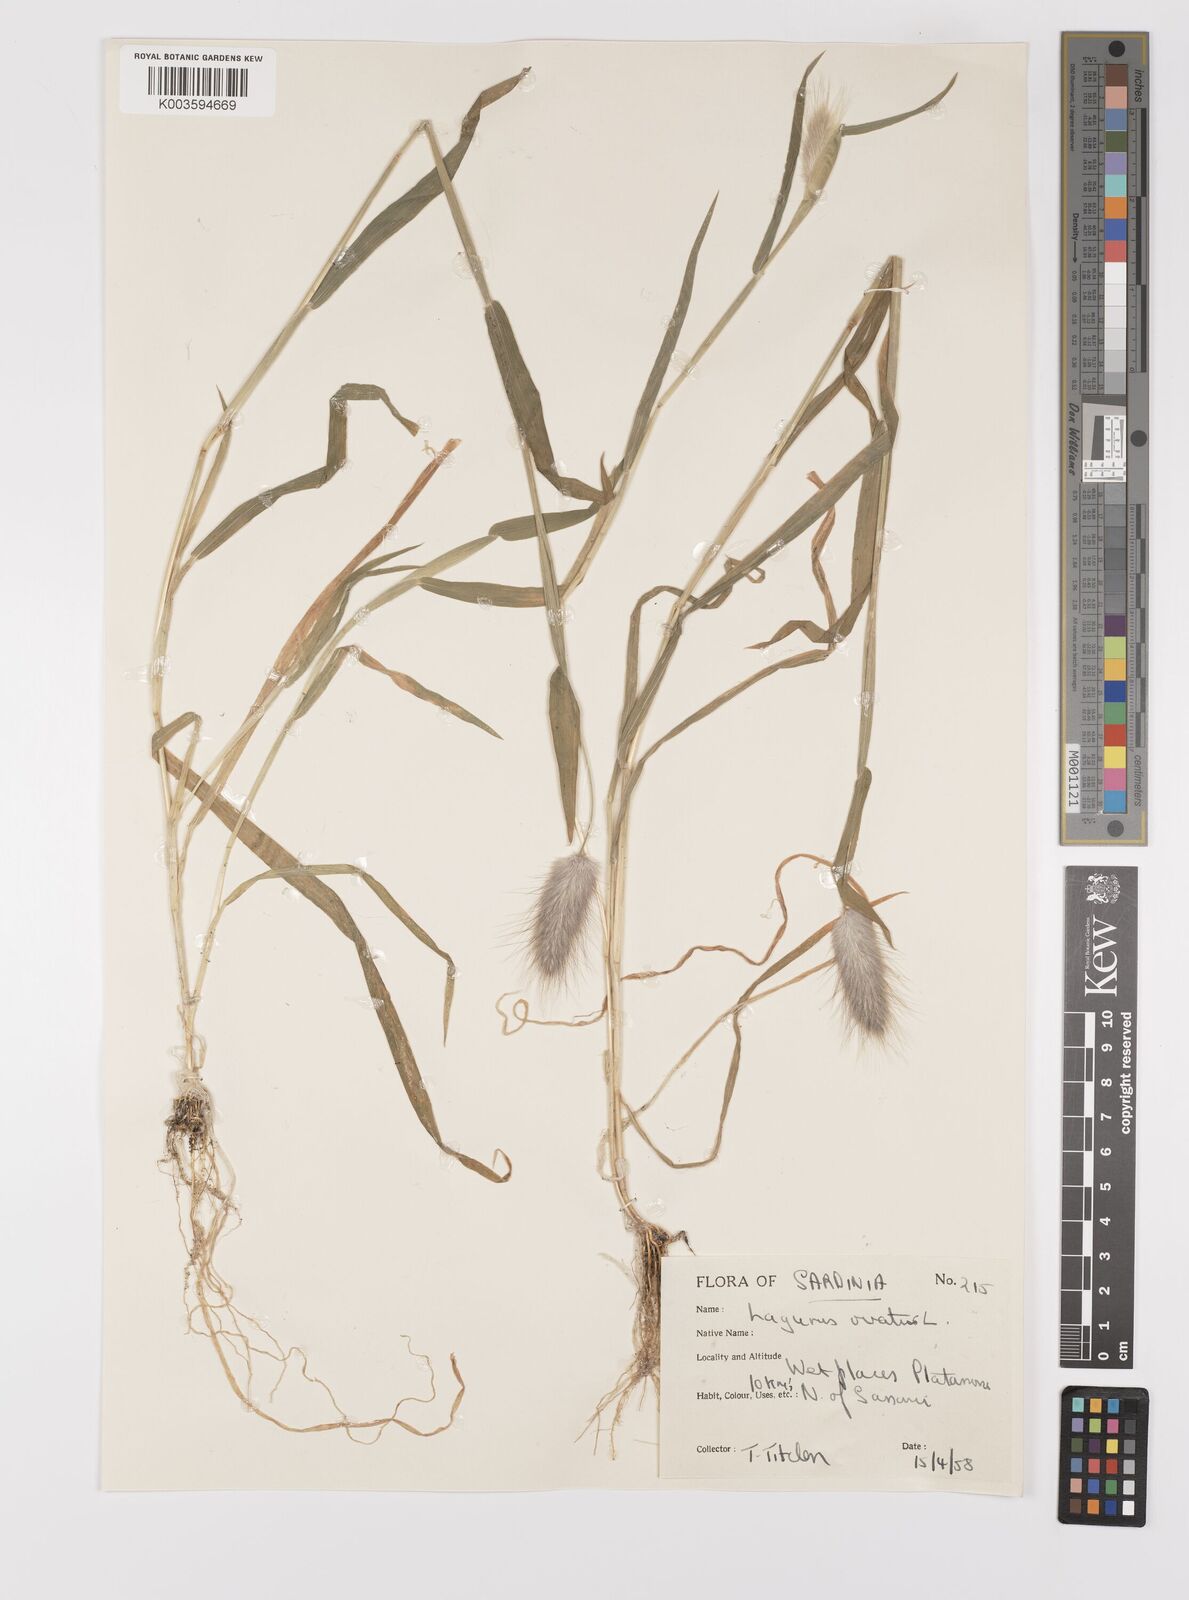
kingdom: Plantae
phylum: Tracheophyta
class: Liliopsida
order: Poales
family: Poaceae
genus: Lagurus
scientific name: Lagurus ovatus
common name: Hare's-tail
